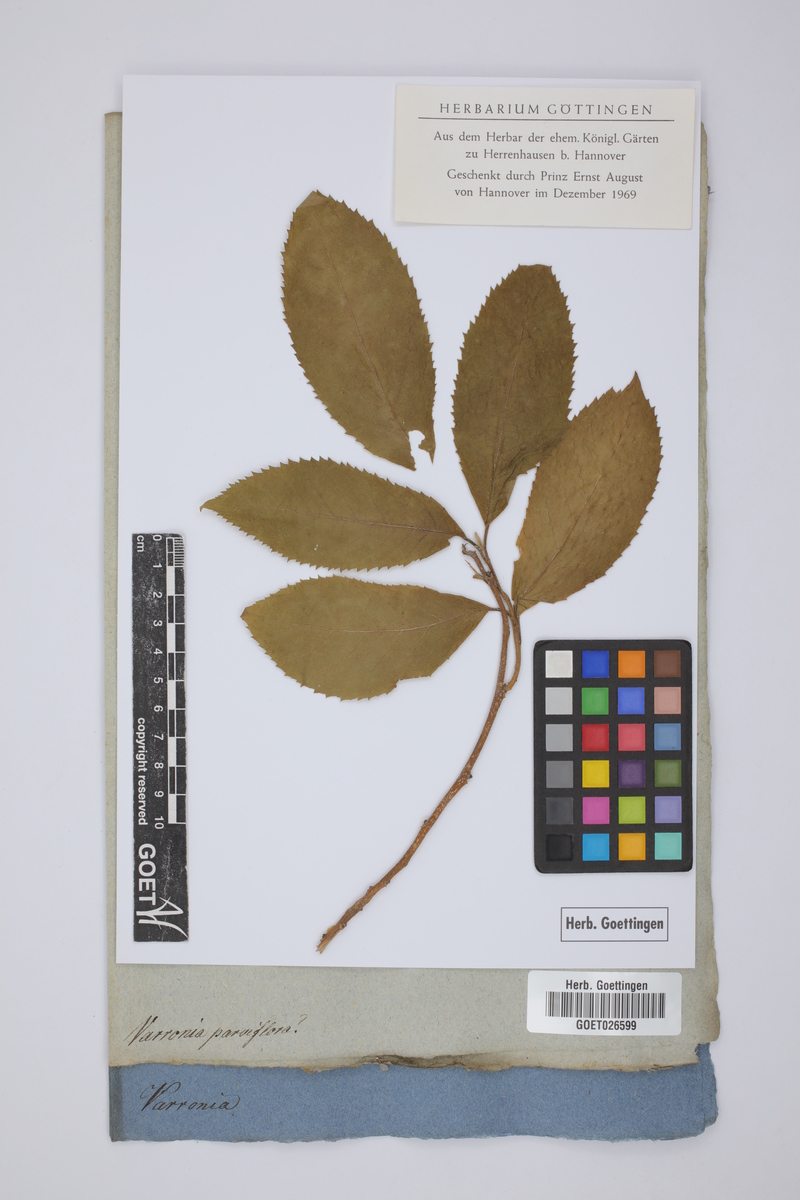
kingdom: Plantae
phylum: Tracheophyta
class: Magnoliopsida
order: Boraginales
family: Cordiaceae
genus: Varronia
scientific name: Varronia dichotoma
